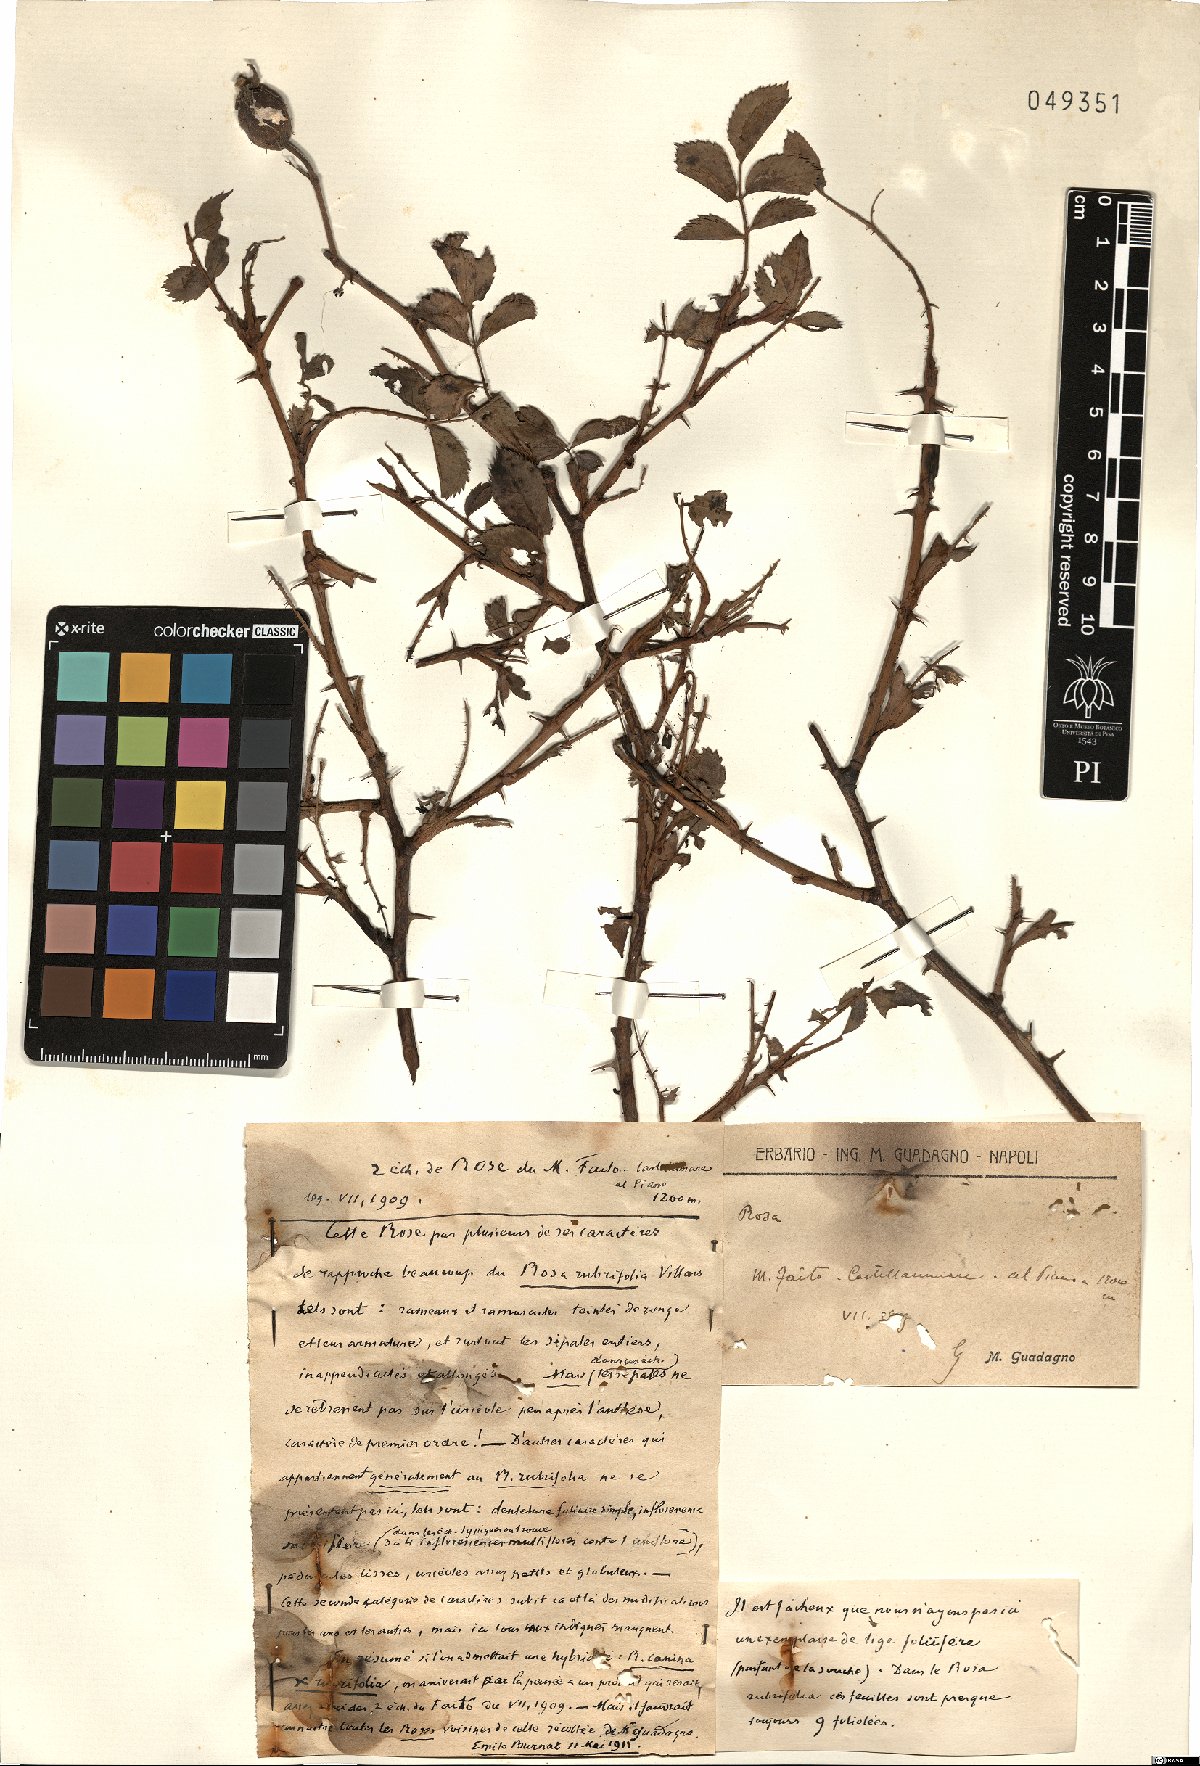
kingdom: Plantae
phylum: Tracheophyta
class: Magnoliopsida
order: Rosales
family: Rosaceae
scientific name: Rosaceae
